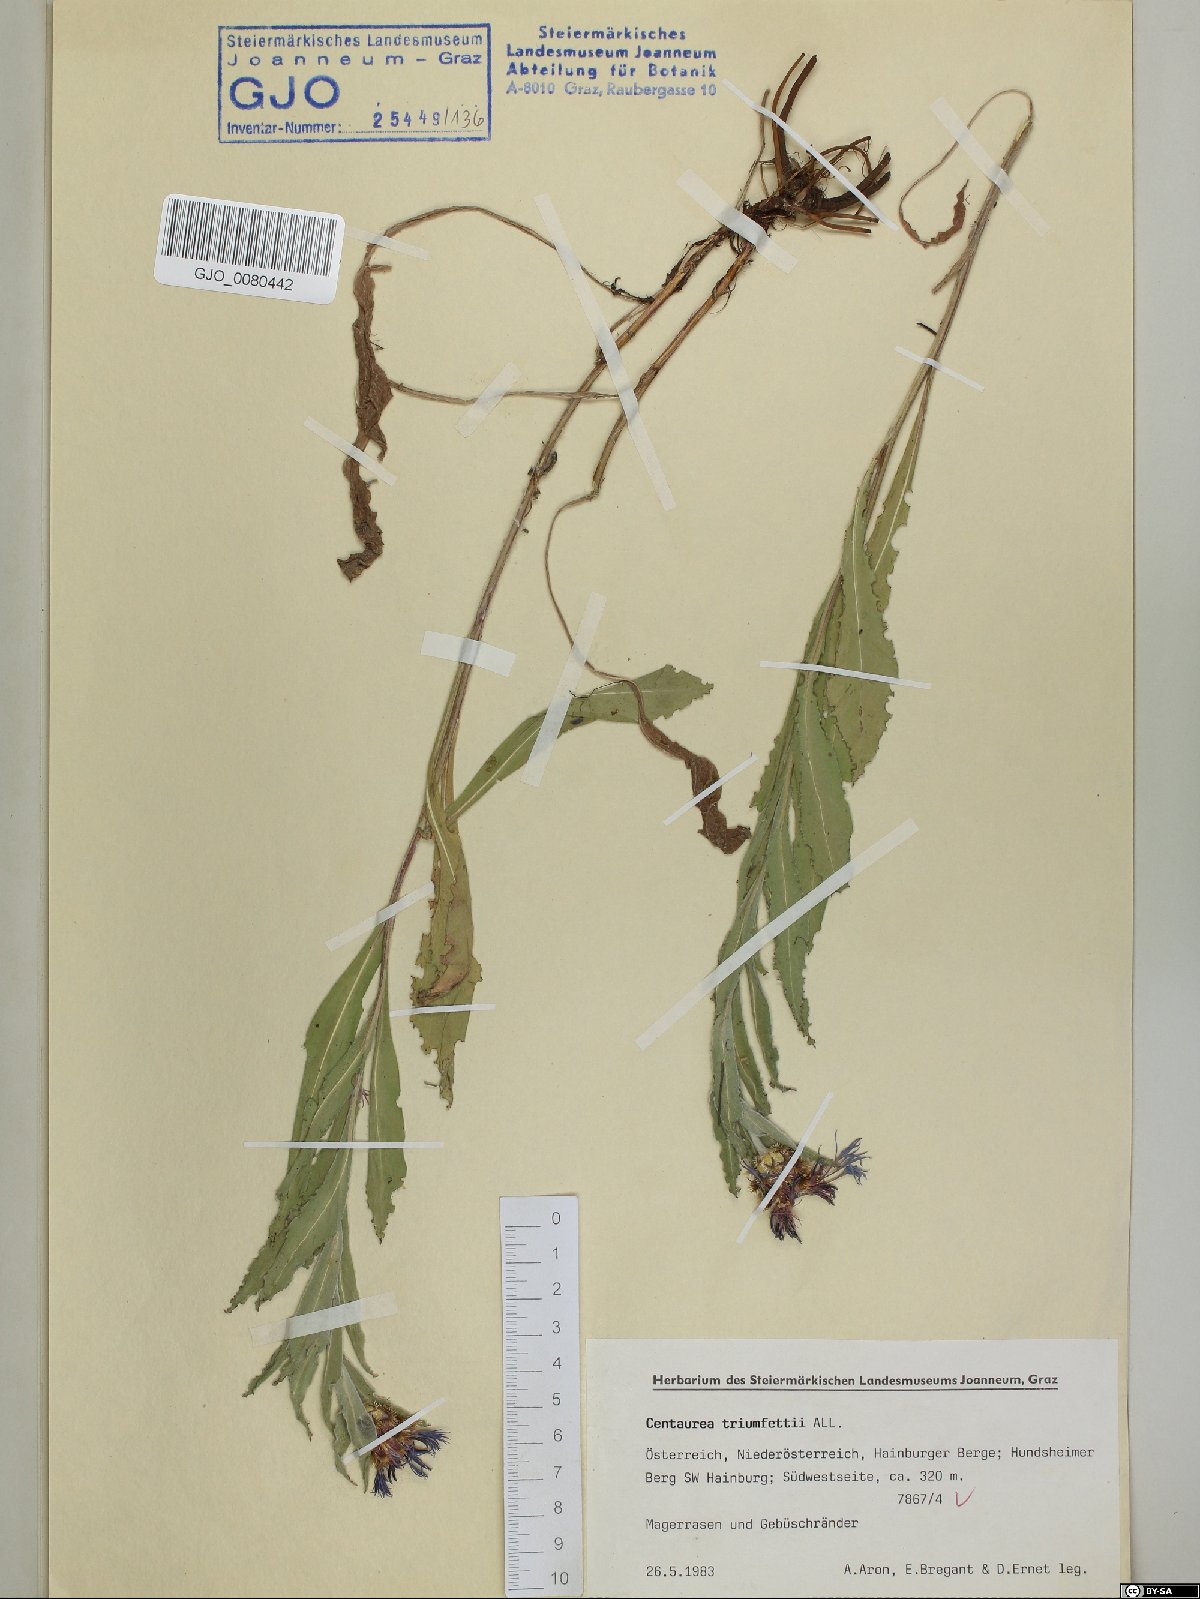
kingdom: Plantae
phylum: Tracheophyta
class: Magnoliopsida
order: Asterales
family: Asteraceae
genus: Centaurea
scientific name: Centaurea triumfettii
